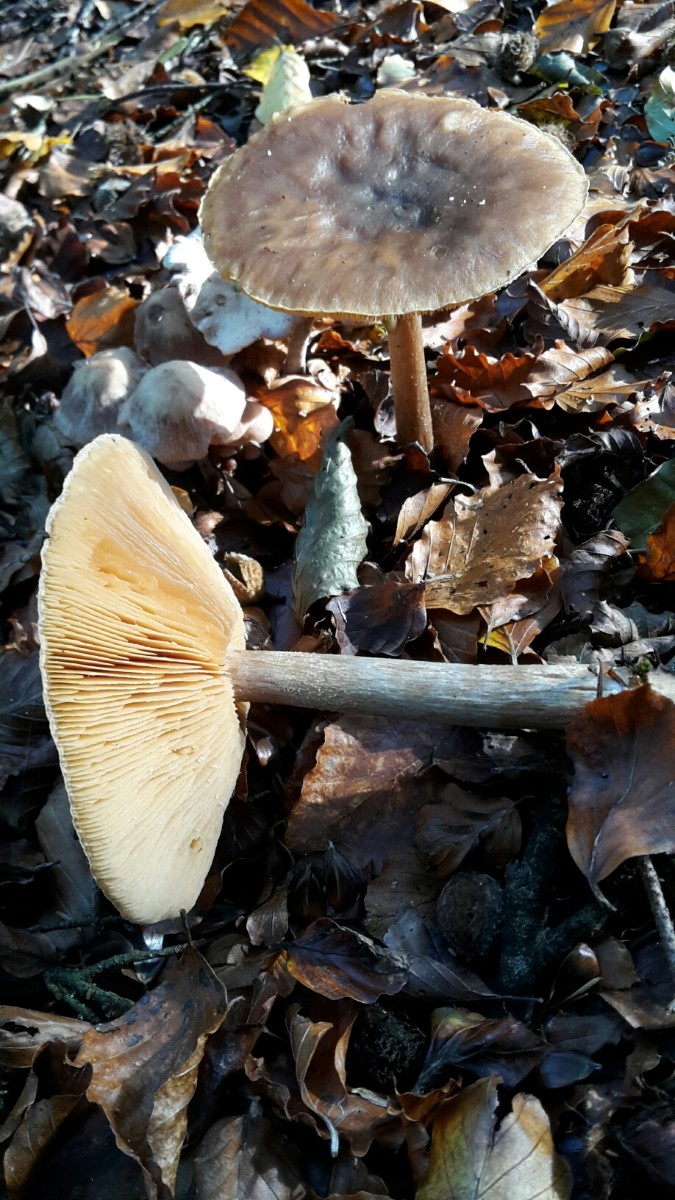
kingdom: Fungi
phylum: Basidiomycota
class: Agaricomycetes
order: Agaricales
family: Tricholomataceae
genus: Melanoleuca
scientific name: Melanoleuca cognata
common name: gyldengrå munkehat
